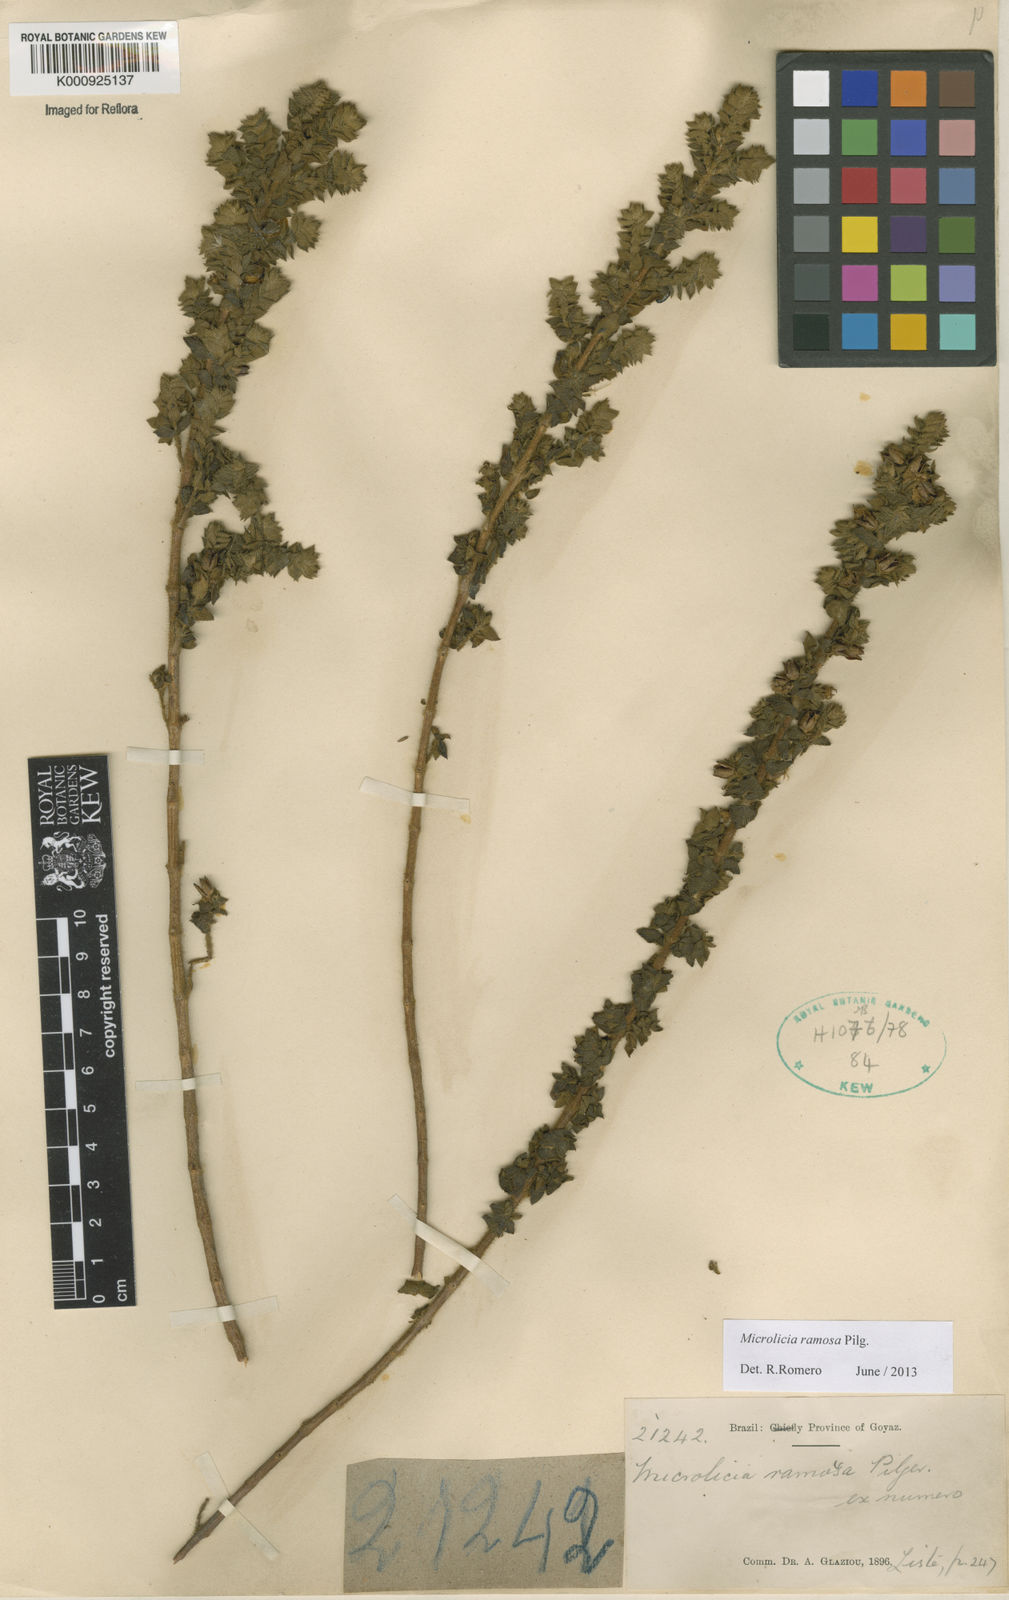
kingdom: Plantae
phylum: Tracheophyta
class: Magnoliopsida
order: Myrtales
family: Melastomataceae
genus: Microlicia
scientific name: Microlicia ramosa
